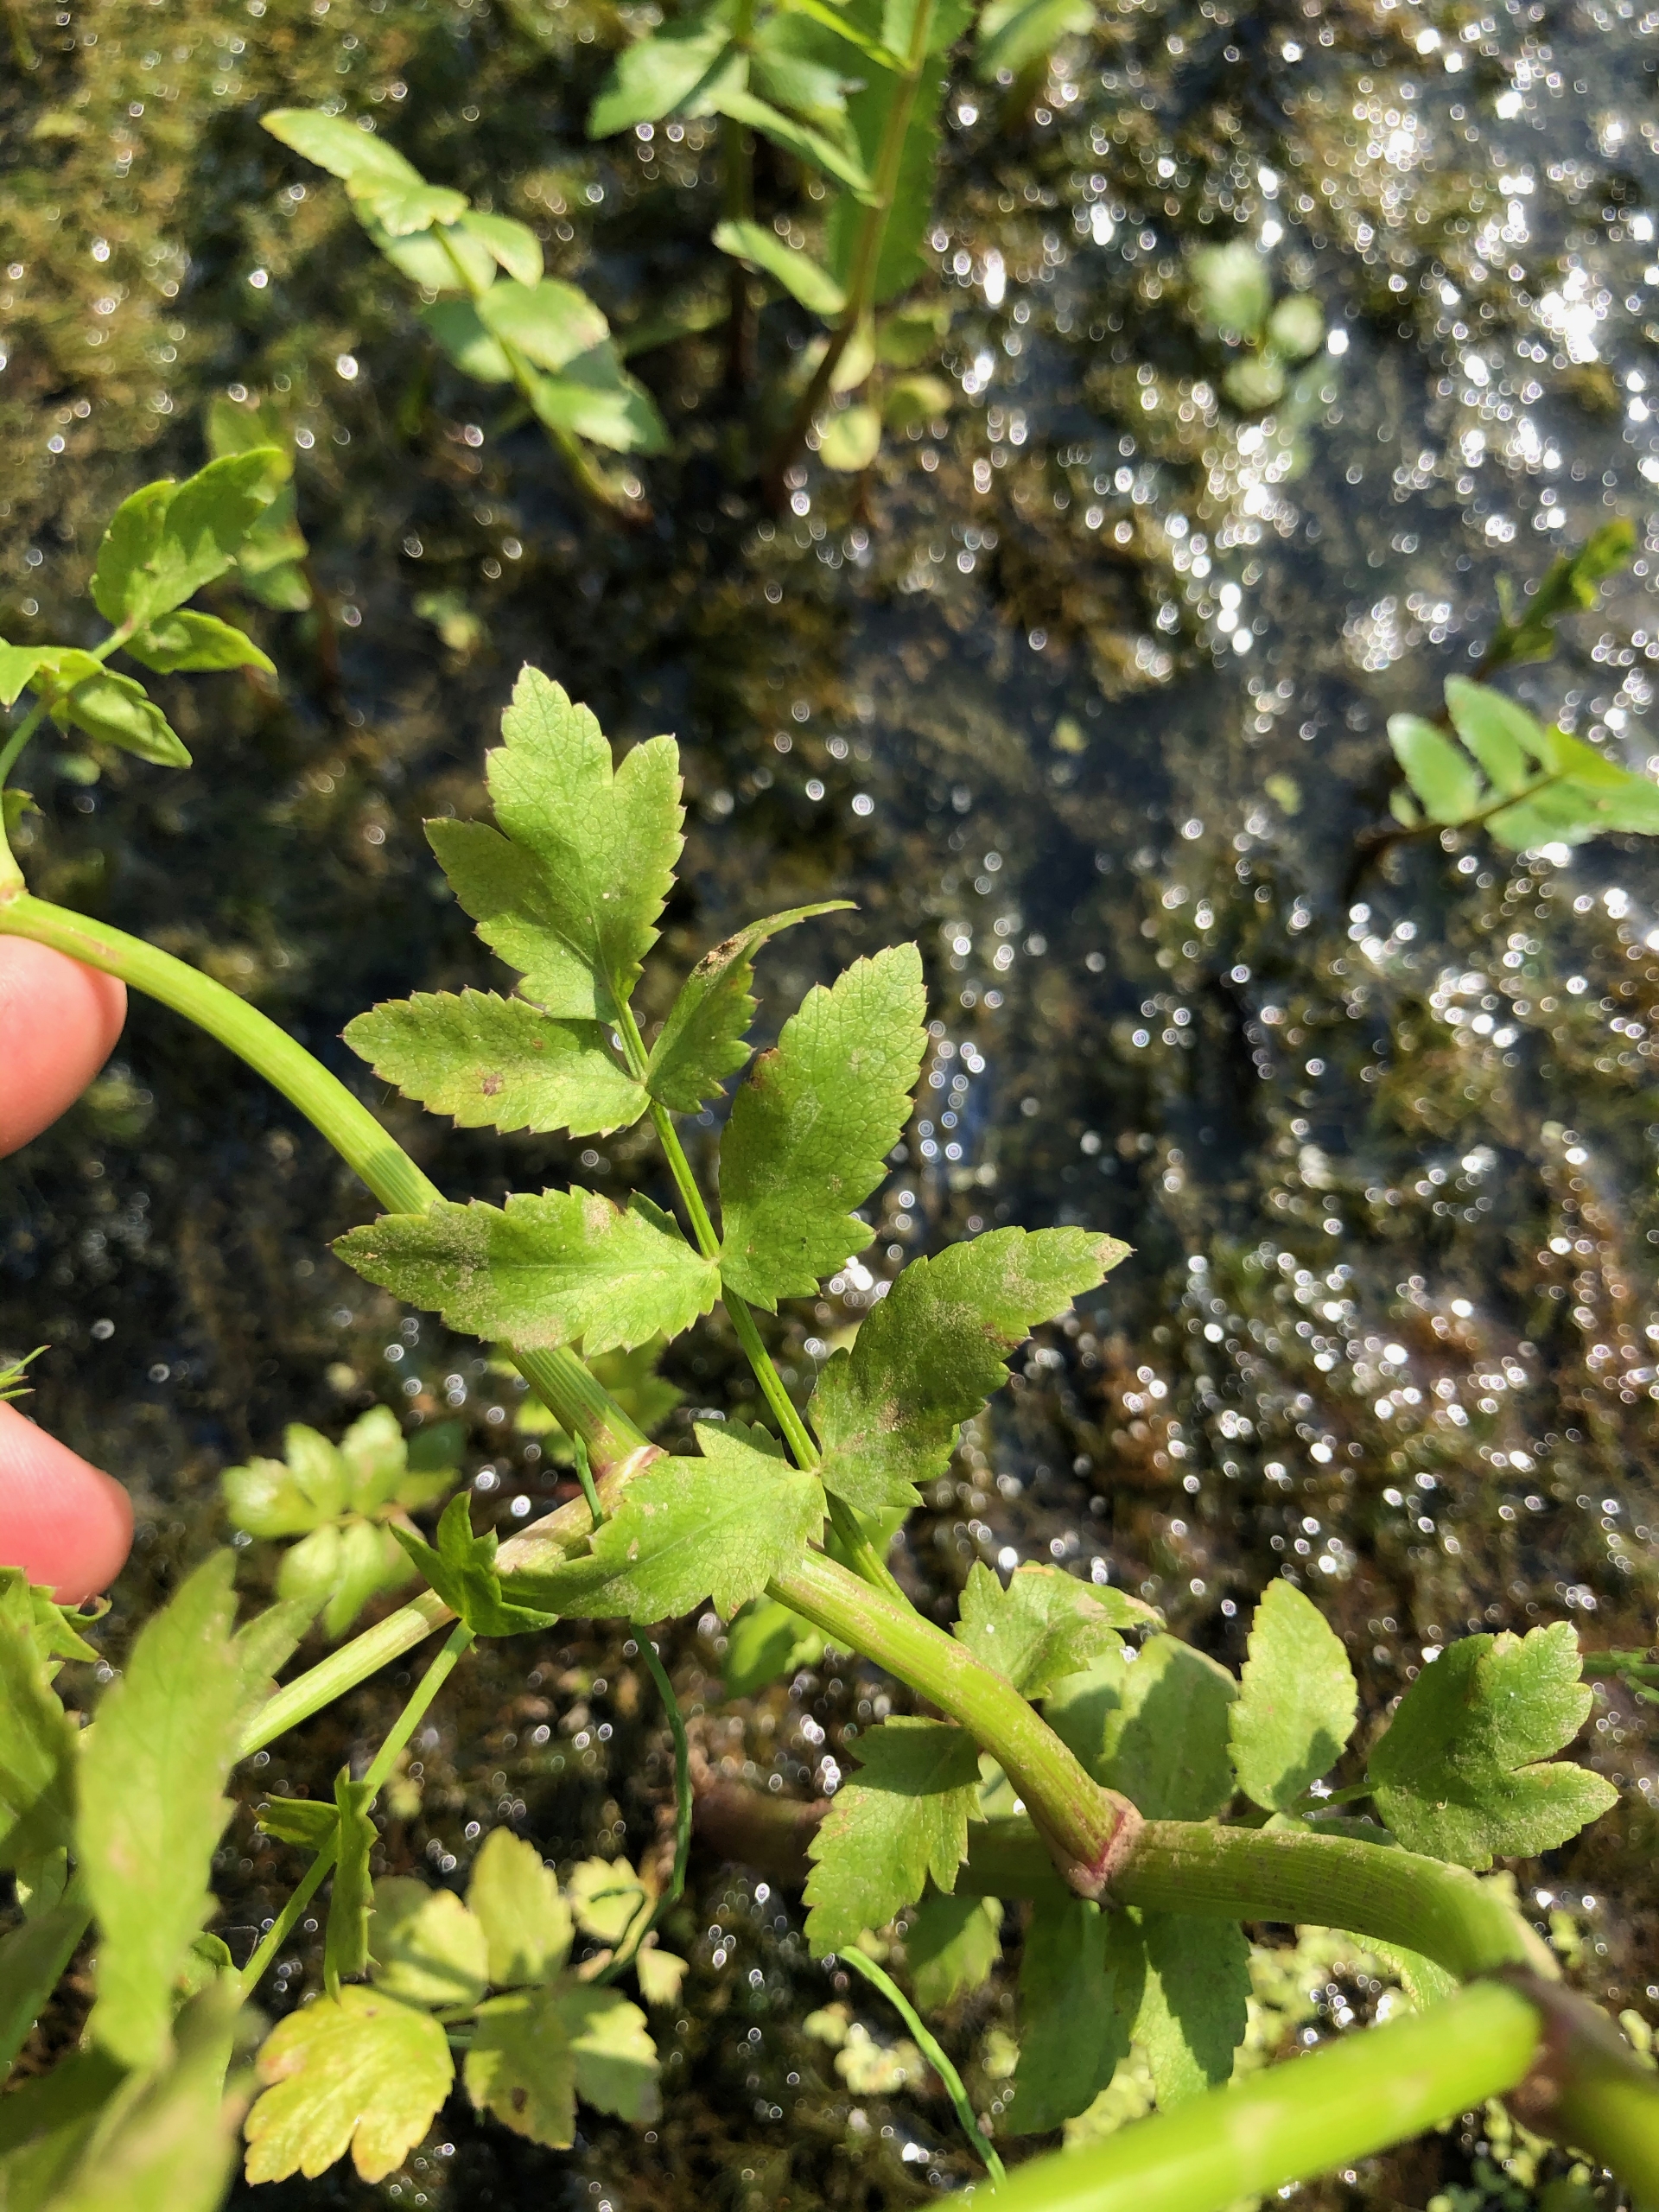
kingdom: Plantae
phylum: Tracheophyta
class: Magnoliopsida
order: Apiales
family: Apiaceae
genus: Berula
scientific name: Berula erecta
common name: Sideskærm
